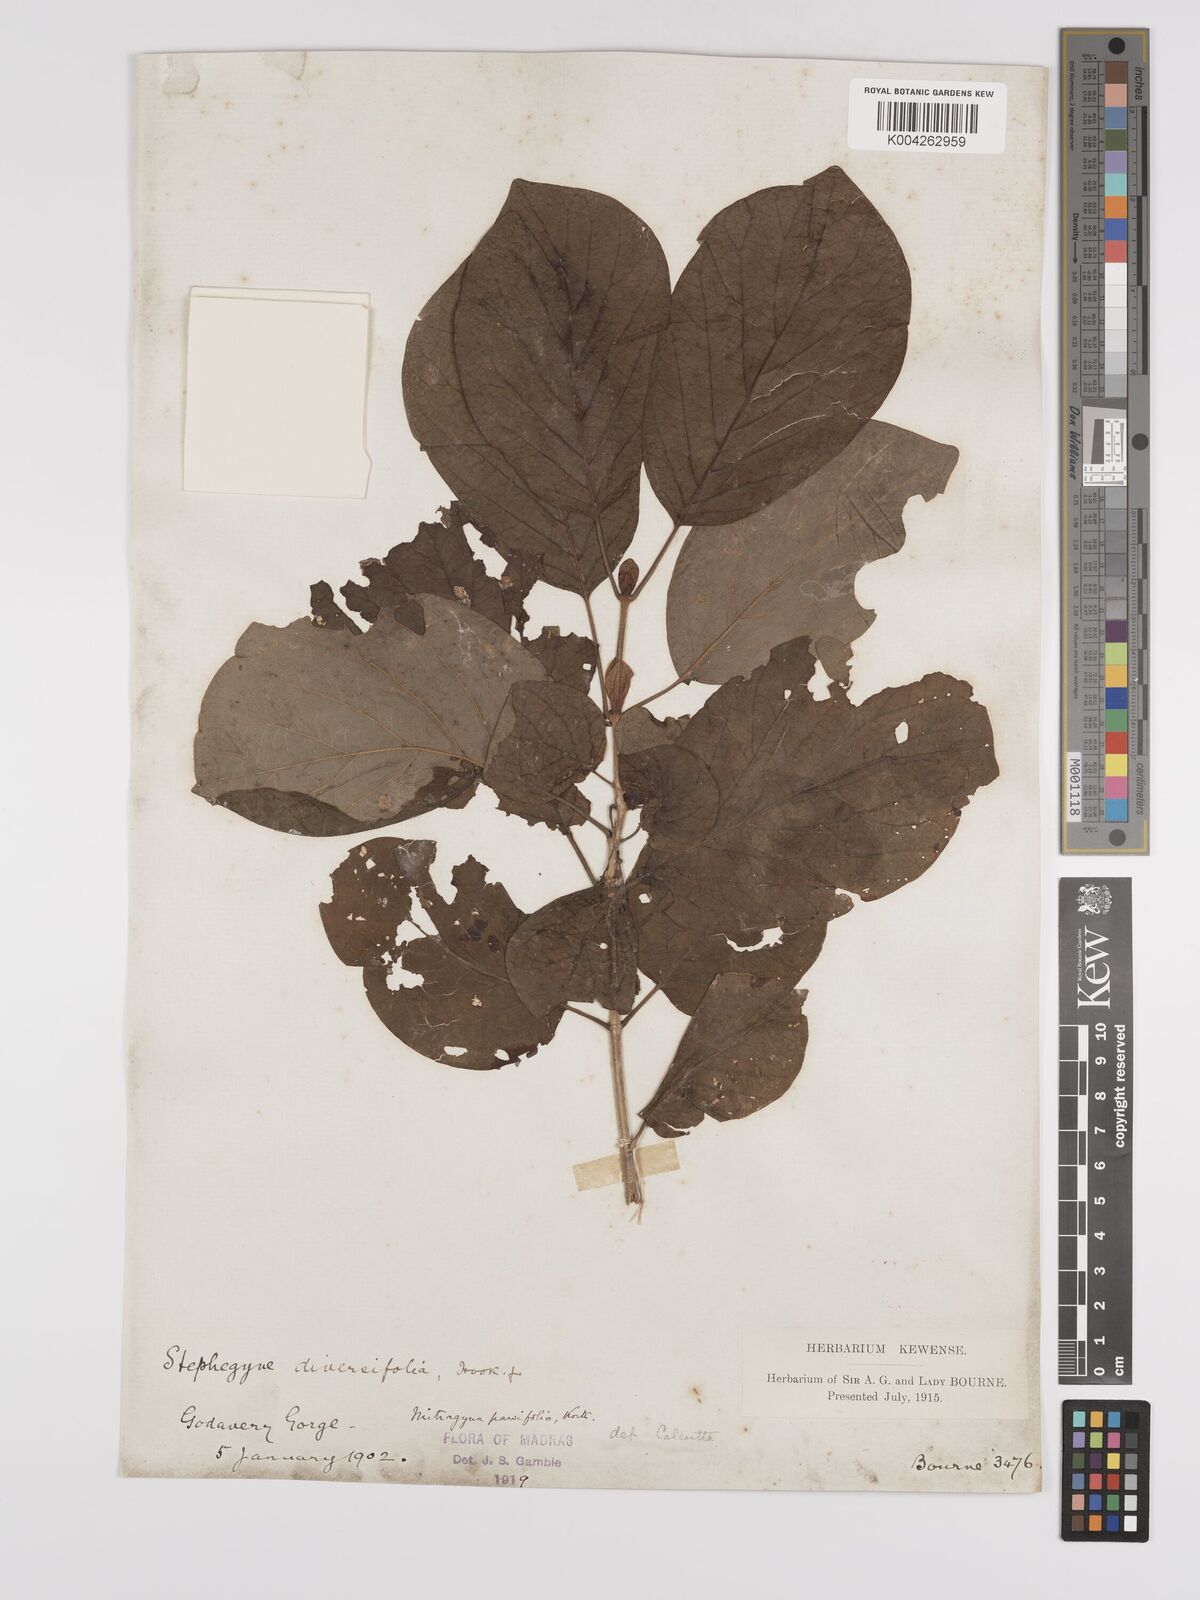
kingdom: Plantae
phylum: Tracheophyta
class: Magnoliopsida
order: Gentianales
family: Rubiaceae
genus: Mitragyna
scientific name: Mitragyna parvifolia
